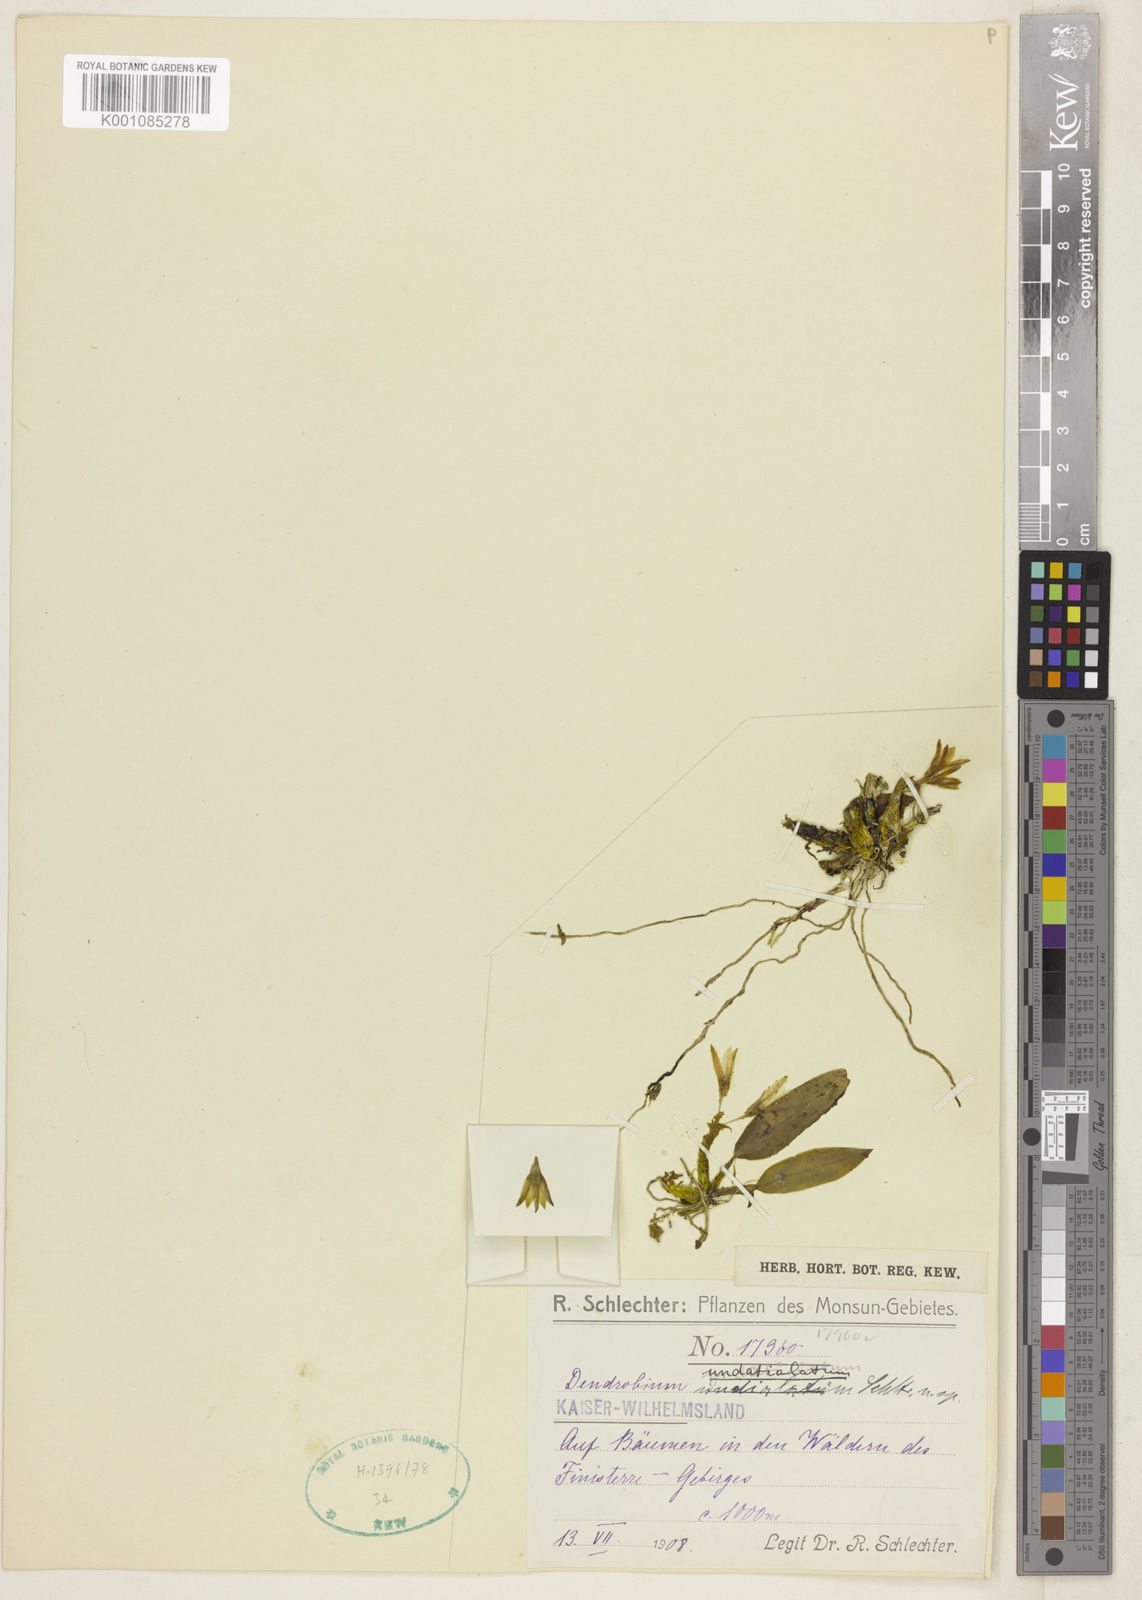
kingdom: Plantae
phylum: Tracheophyta
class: Liliopsida
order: Asparagales
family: Orchidaceae
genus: Dendrobium
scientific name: Dendrobium undatialatum
